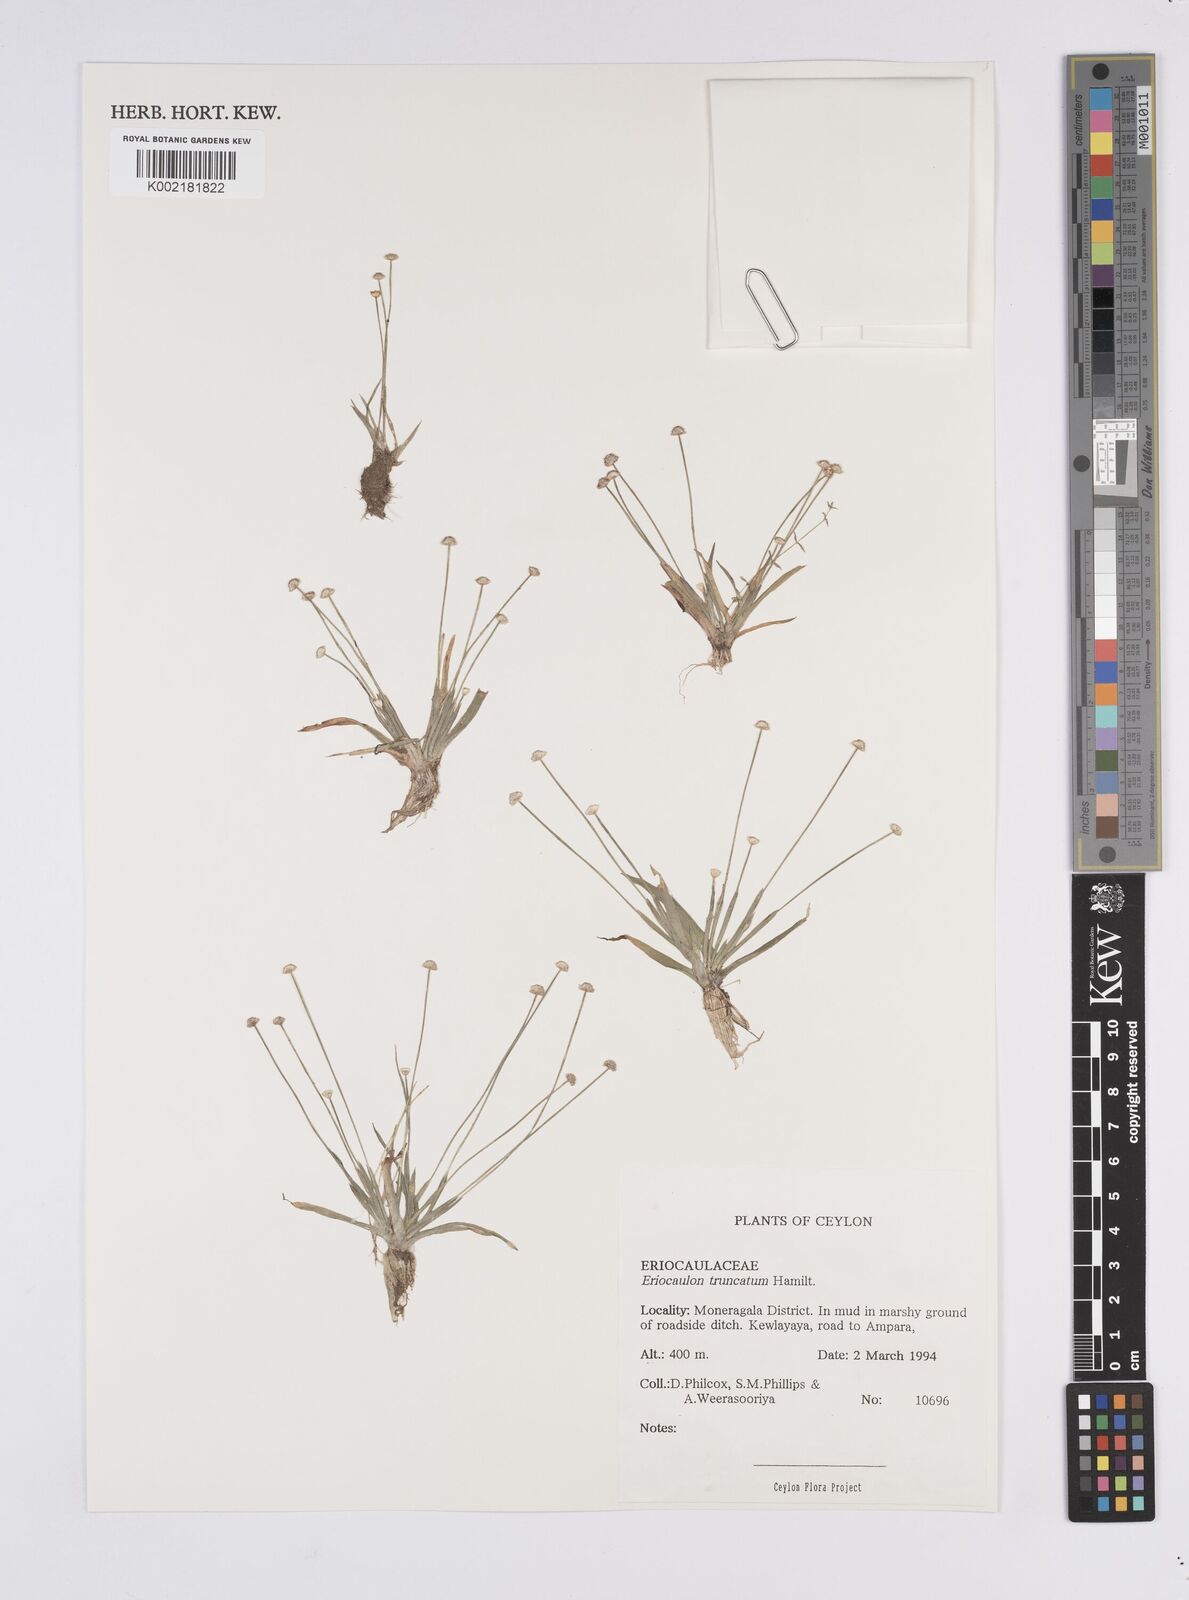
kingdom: Plantae
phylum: Tracheophyta
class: Liliopsida
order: Poales
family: Eriocaulaceae
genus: Eriocaulon
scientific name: Eriocaulon truncatum
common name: Short pipe-wort
